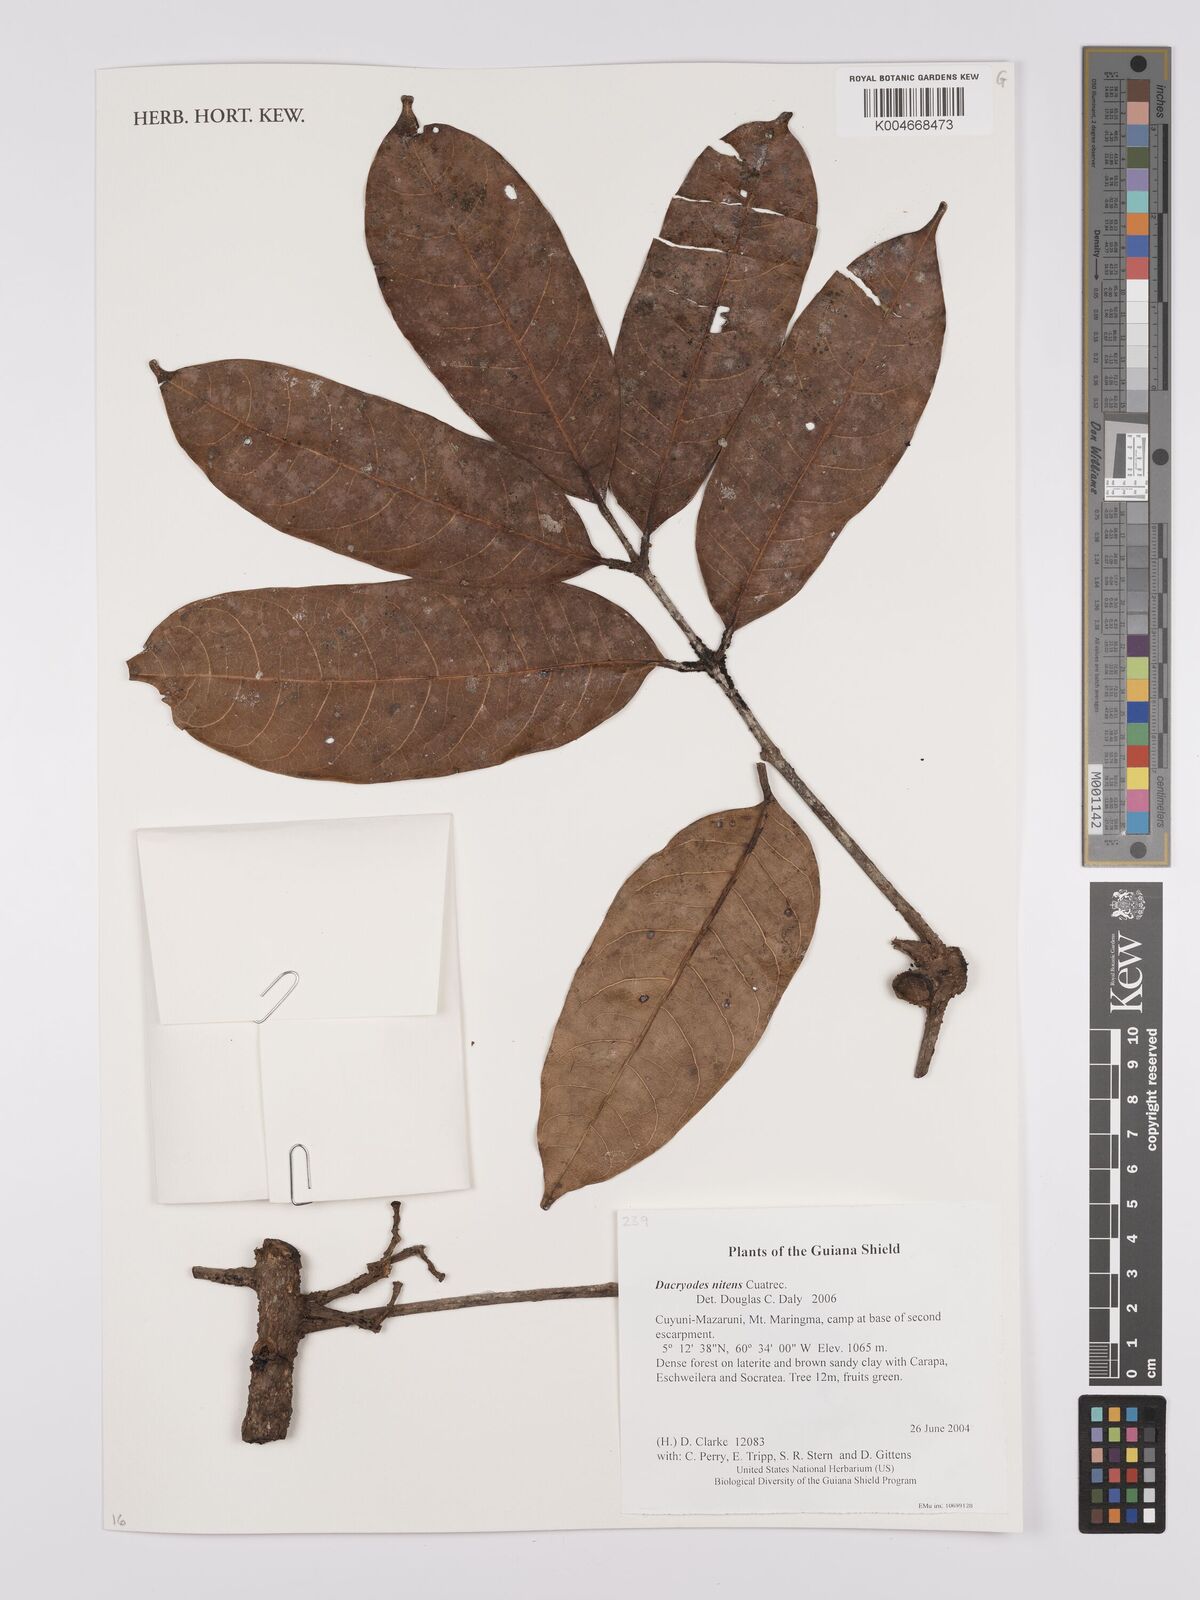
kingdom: Plantae
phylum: Tracheophyta
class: Magnoliopsida
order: Sapindales
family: Burseraceae
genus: Dacryodes
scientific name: Dacryodes nitens
